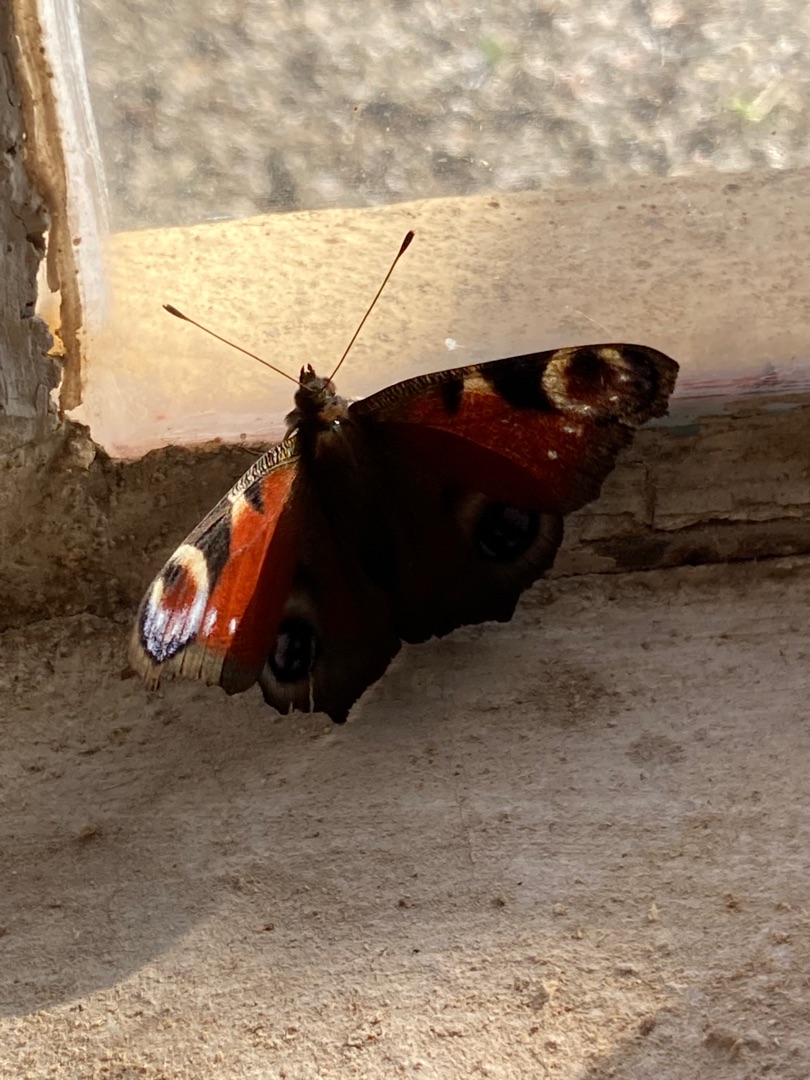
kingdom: Animalia
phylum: Arthropoda
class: Insecta
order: Lepidoptera
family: Nymphalidae
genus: Aglais
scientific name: Aglais io
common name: Dagpåfugleøje
